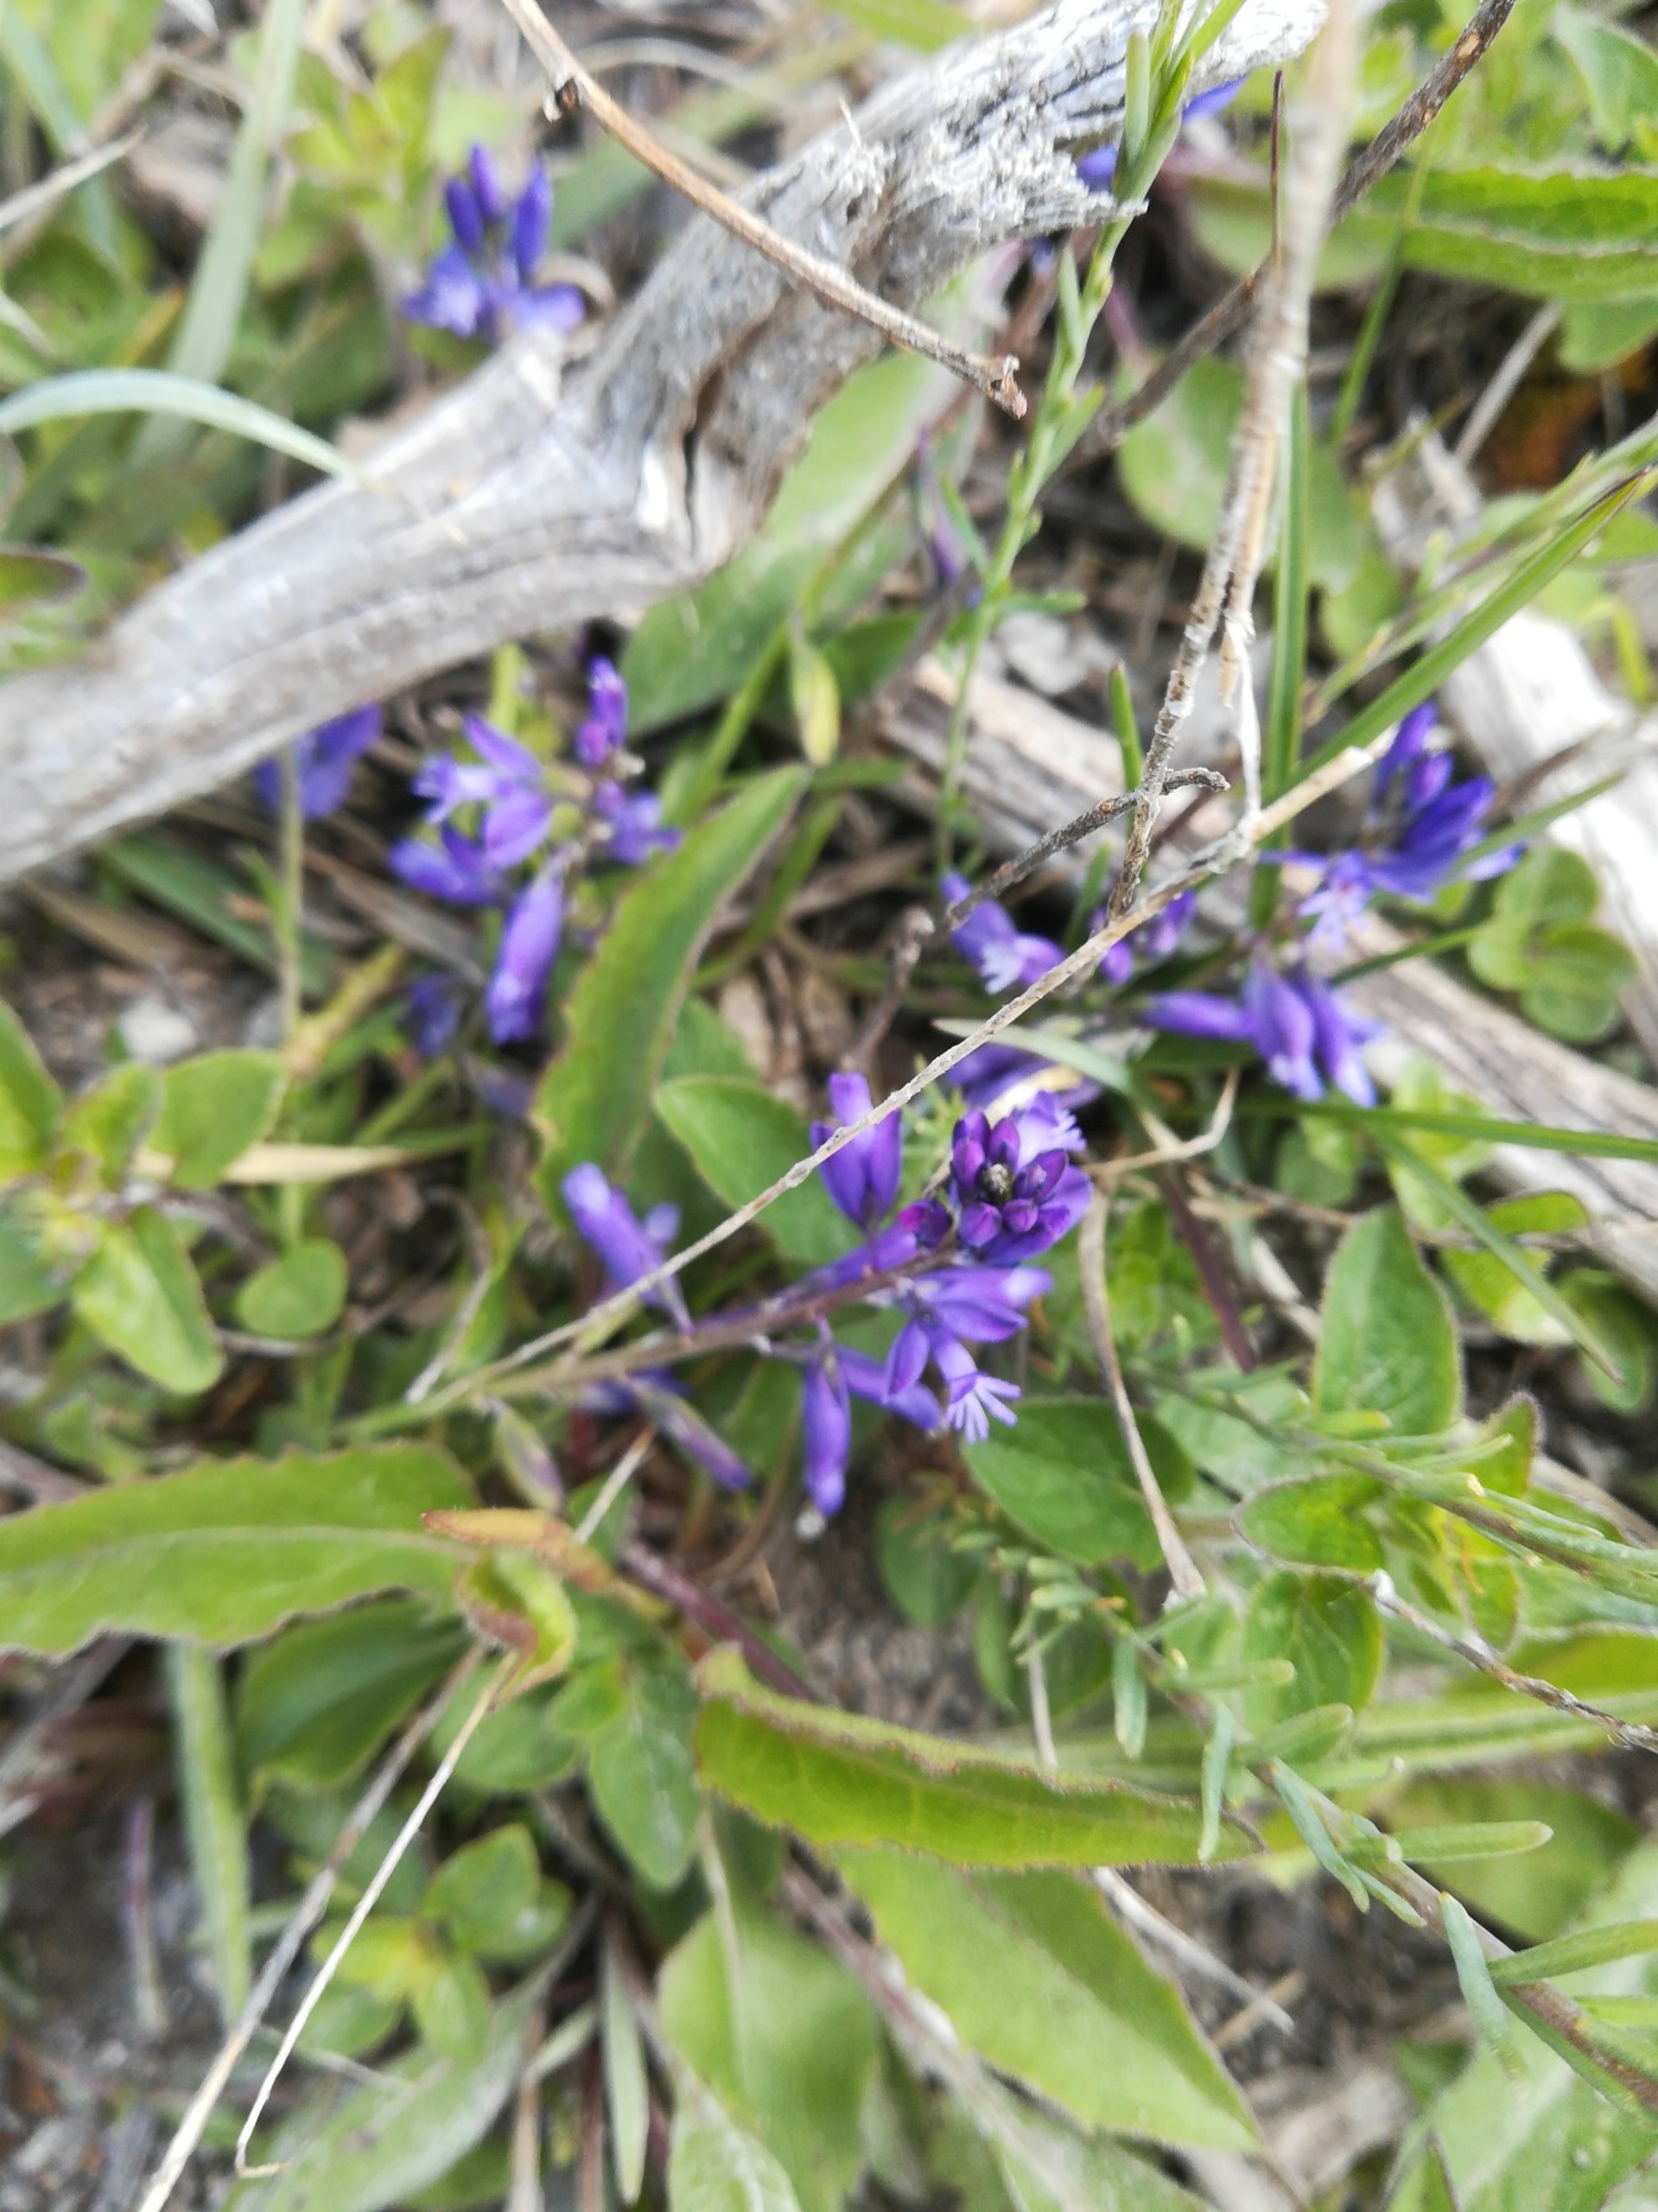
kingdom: Plantae
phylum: Tracheophyta
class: Magnoliopsida
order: Fabales
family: Polygalaceae
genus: Polygala
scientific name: Polygala vulgaris
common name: Almindelig mælkeurt
